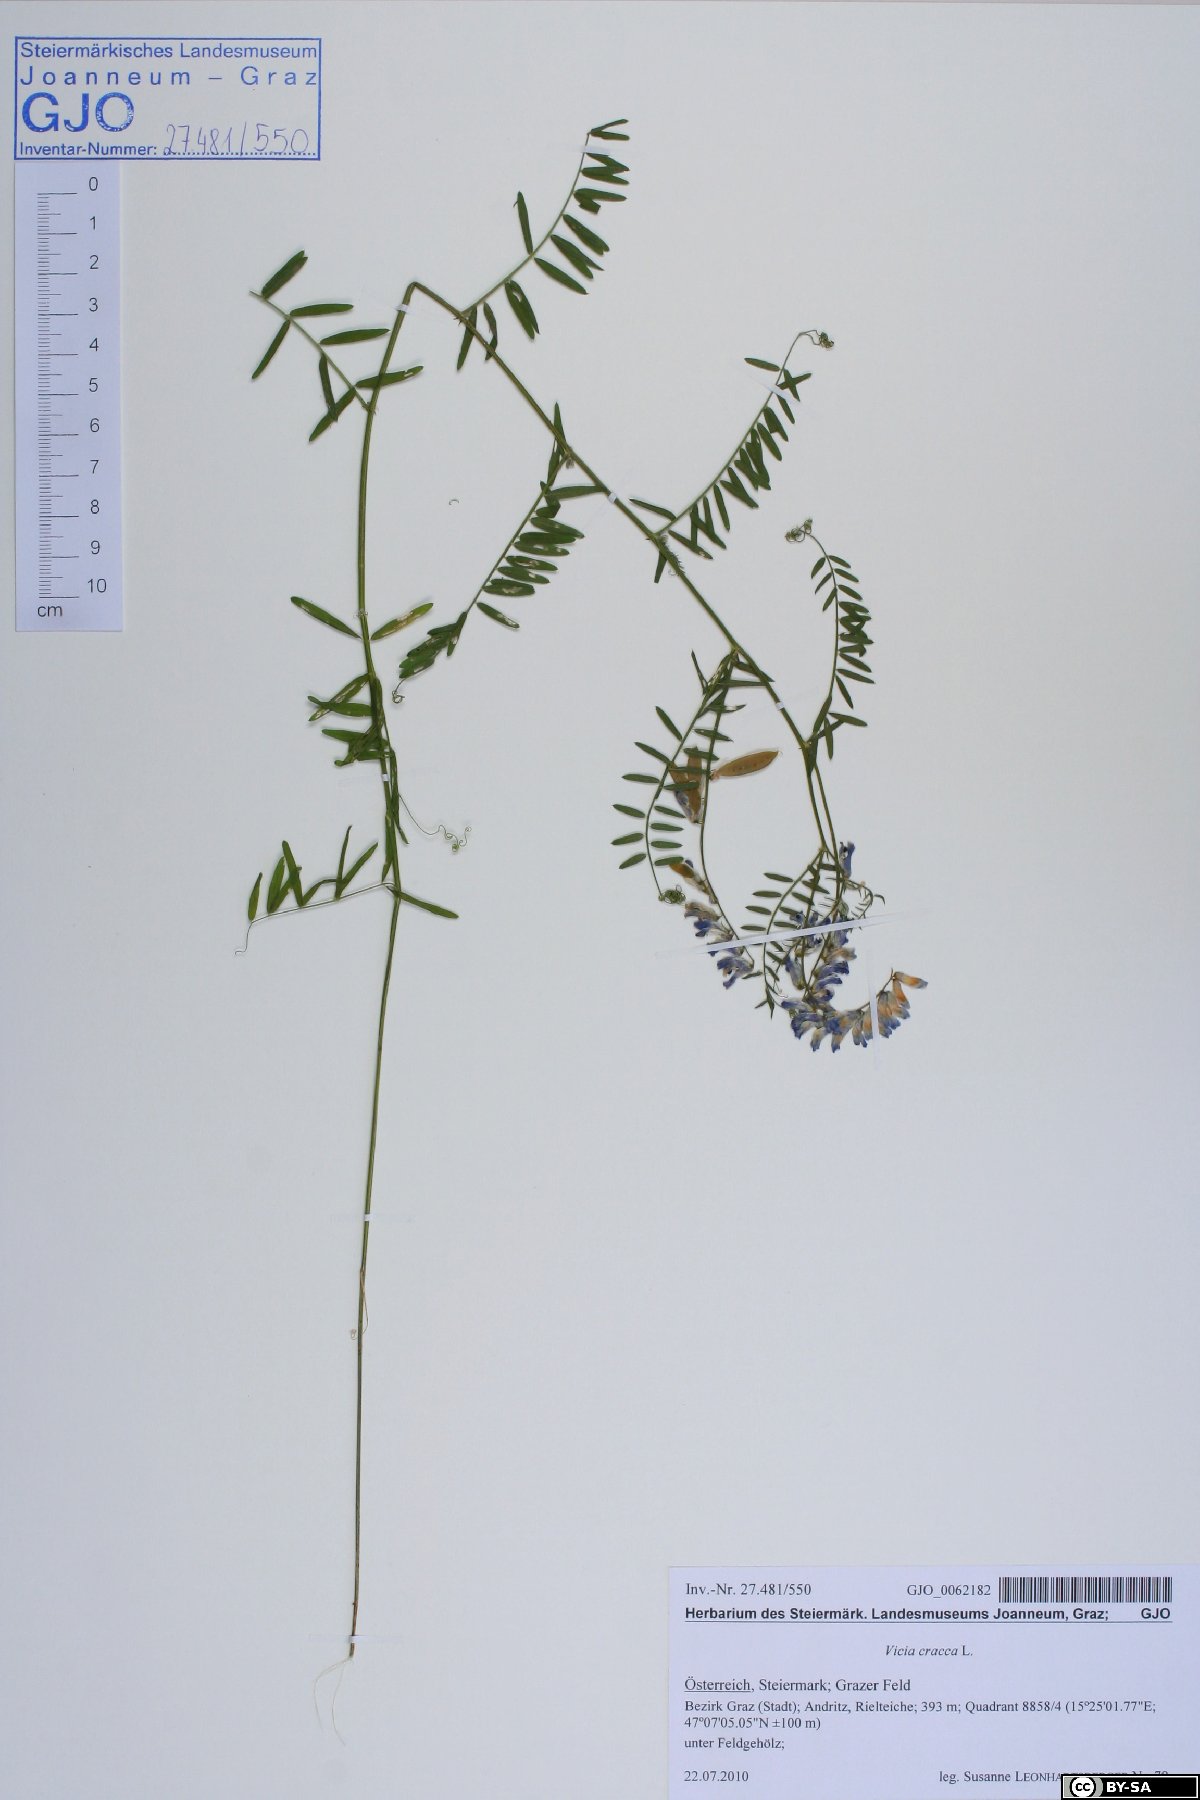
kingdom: Plantae
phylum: Tracheophyta
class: Magnoliopsida
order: Fabales
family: Fabaceae
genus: Vicia
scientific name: Vicia cracca
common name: Bird vetch
